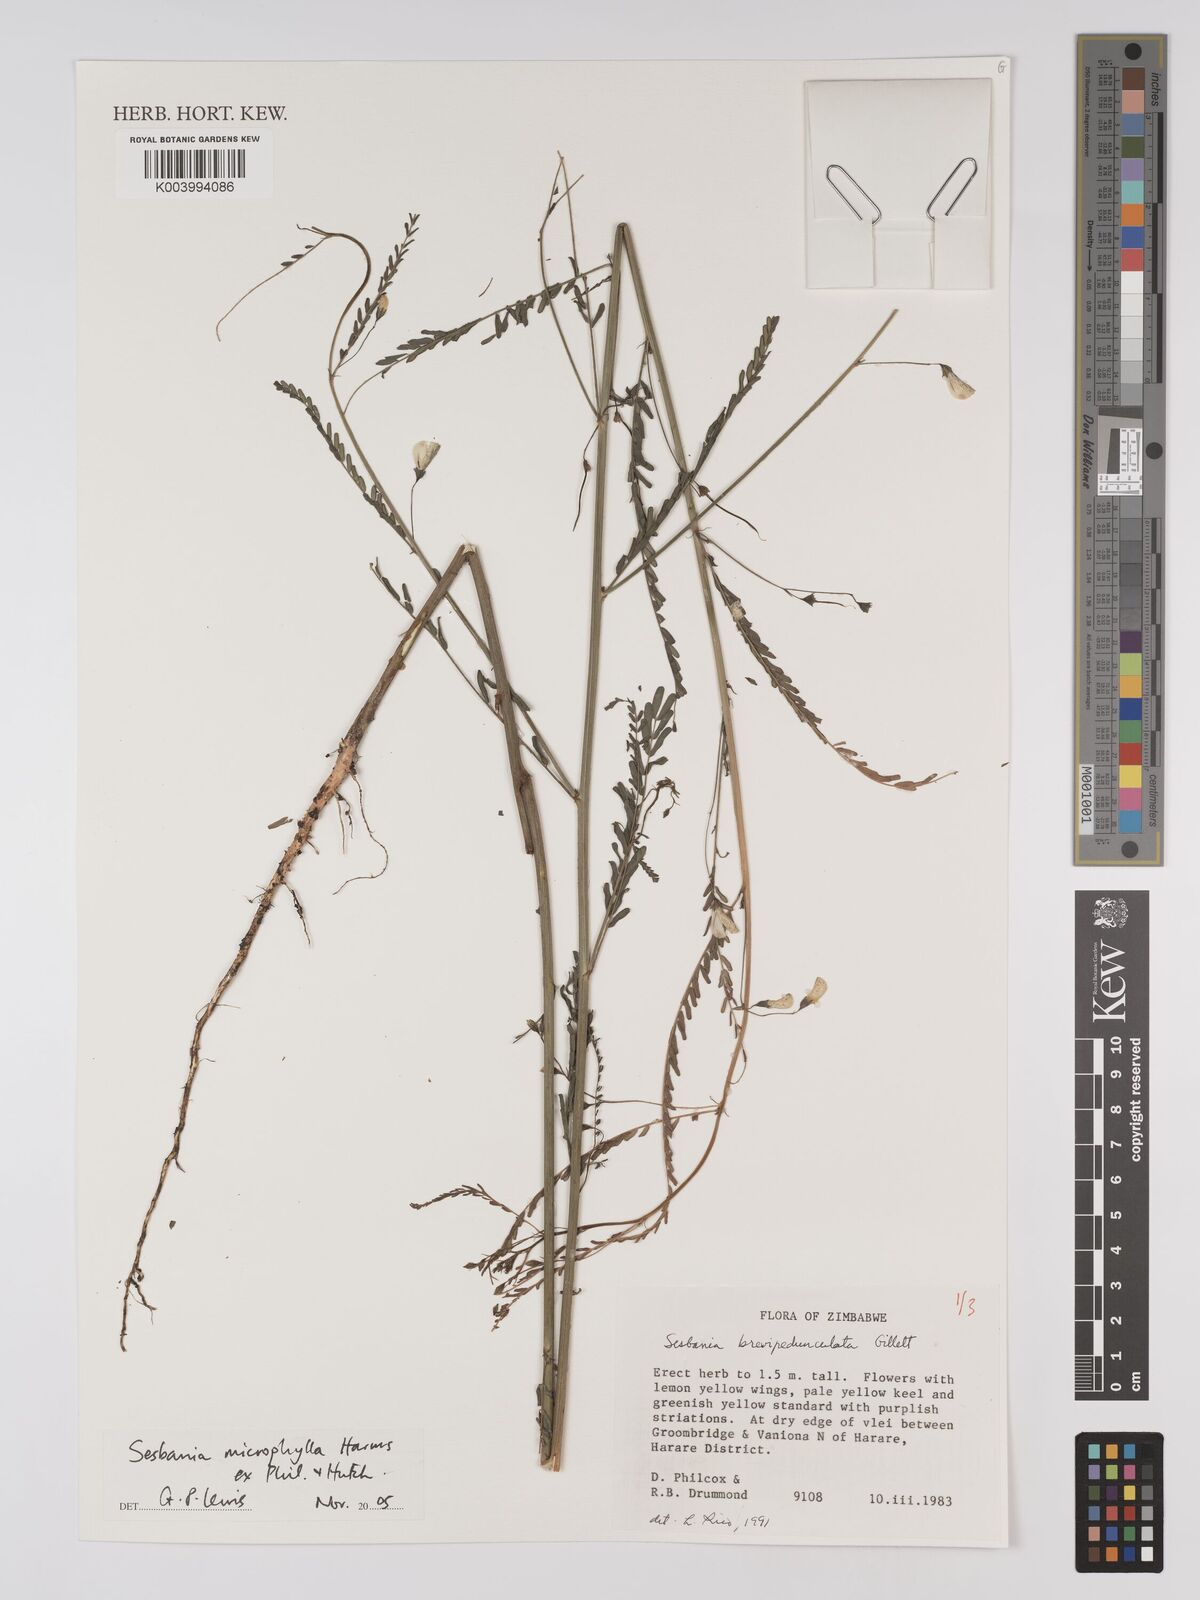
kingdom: Plantae
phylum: Tracheophyta
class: Magnoliopsida
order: Fabales
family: Fabaceae
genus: Sesbania
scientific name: Sesbania microphylla
